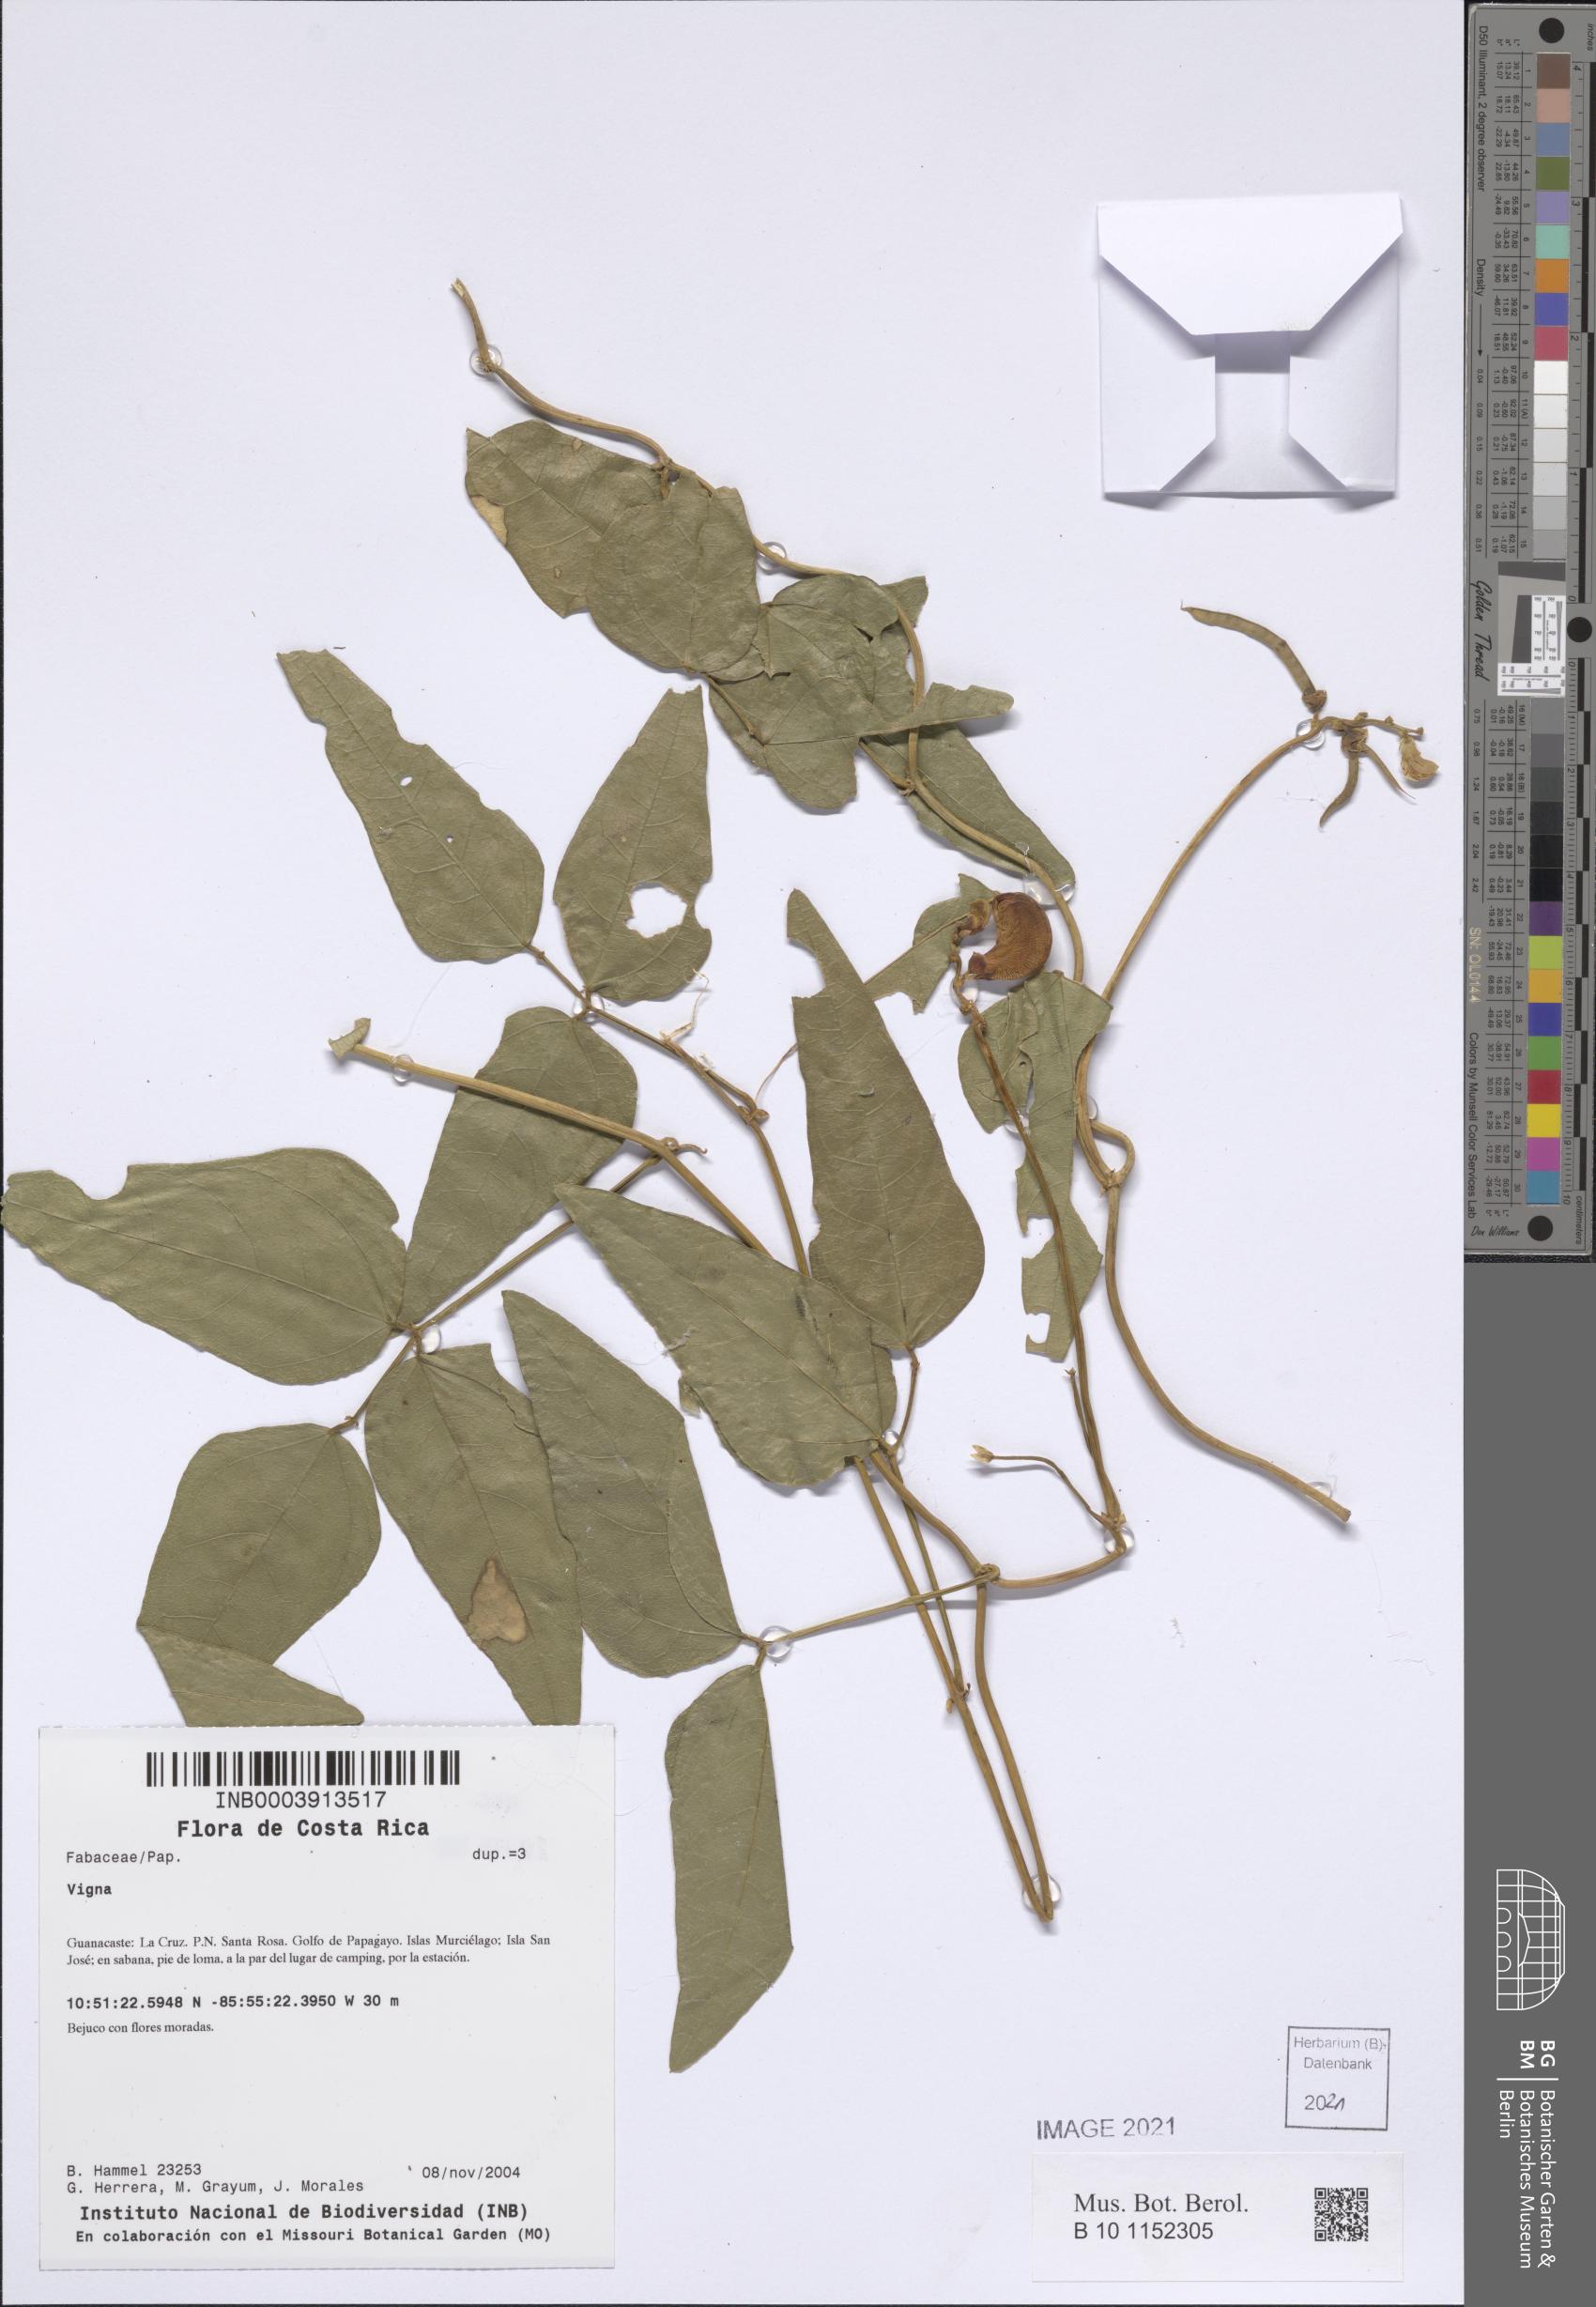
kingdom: Plantae
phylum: Tracheophyta
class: Magnoliopsida
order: Fabales
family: Fabaceae
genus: Leptospron
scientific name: Leptospron adenanthum
